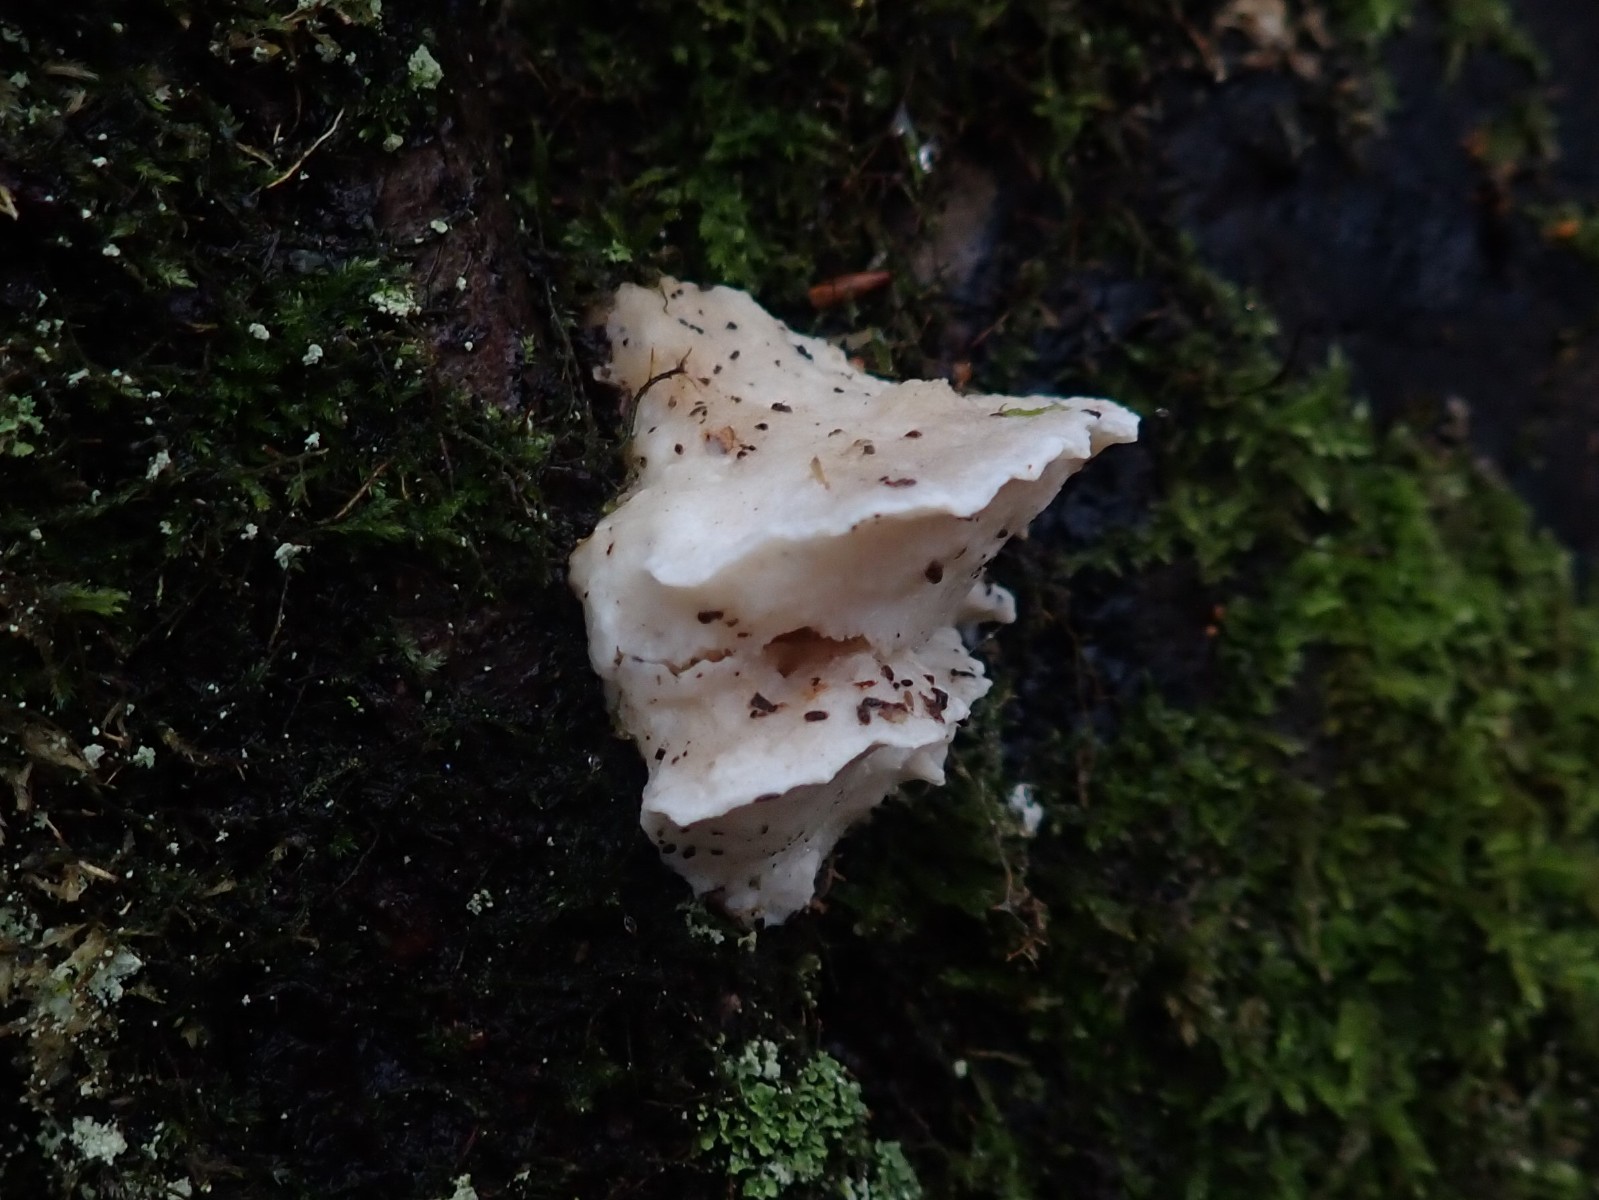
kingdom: Fungi
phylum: Basidiomycota
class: Agaricomycetes
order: Polyporales
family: Incrustoporiaceae
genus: Tyromyces
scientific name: Tyromyces lacteus
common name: mælkehvid kødporesvamp
